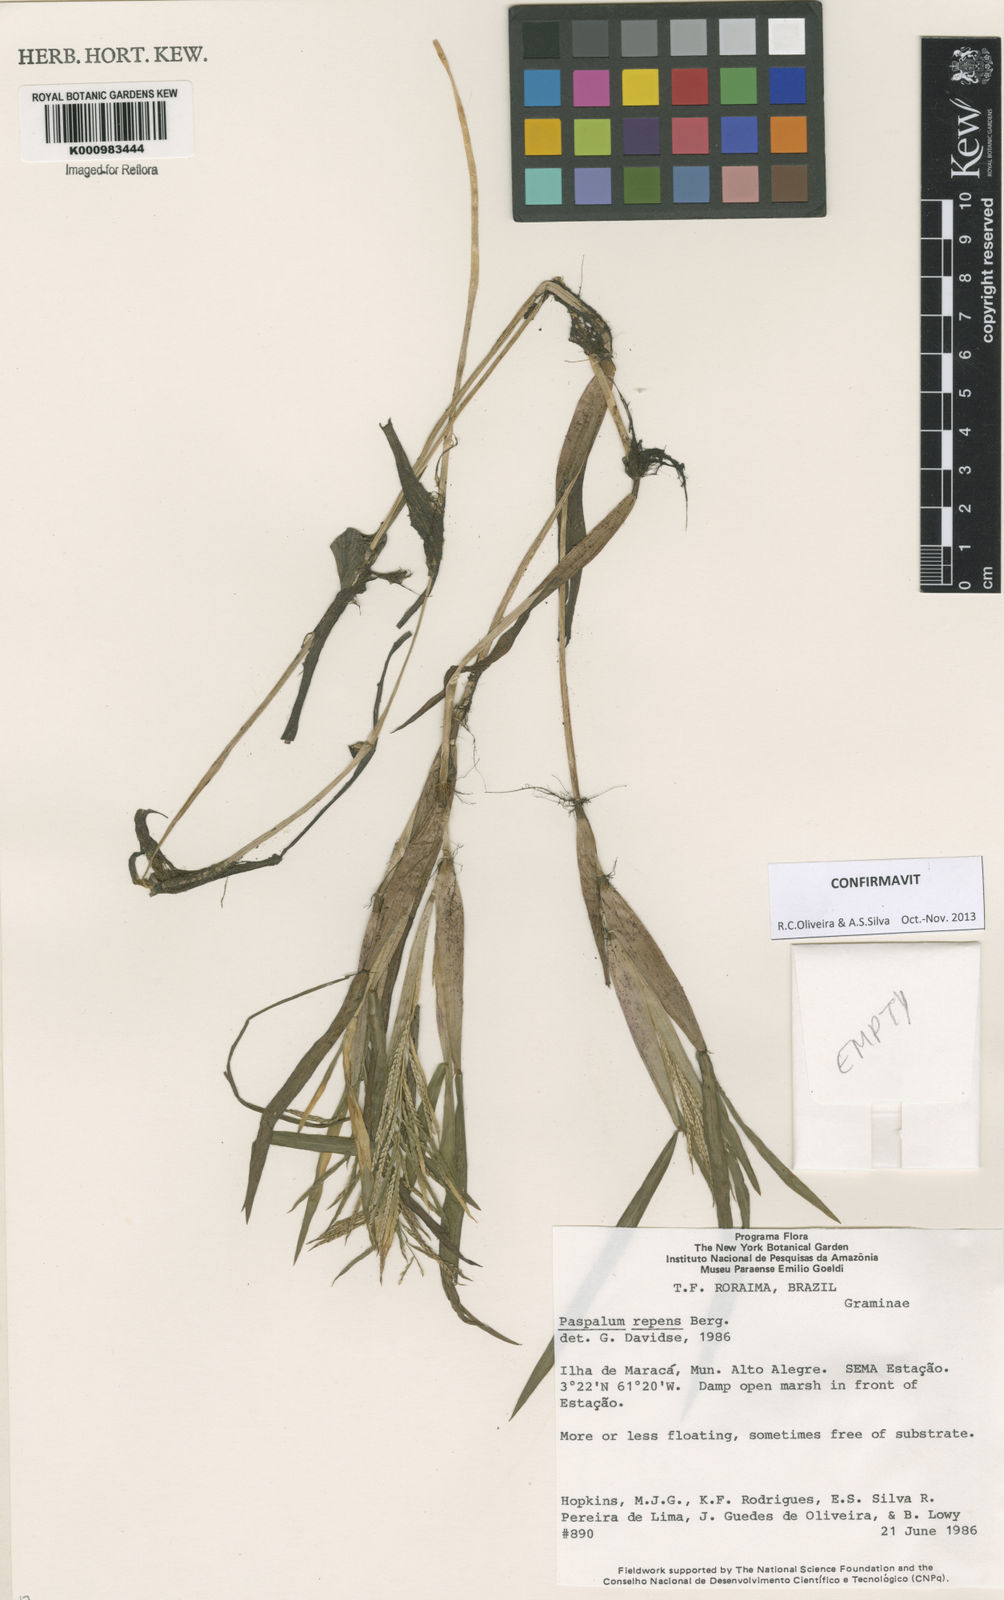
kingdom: Plantae
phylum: Tracheophyta
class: Liliopsida
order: Poales
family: Poaceae
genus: Paspalum
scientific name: Paspalum repens
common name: Water paspalum
